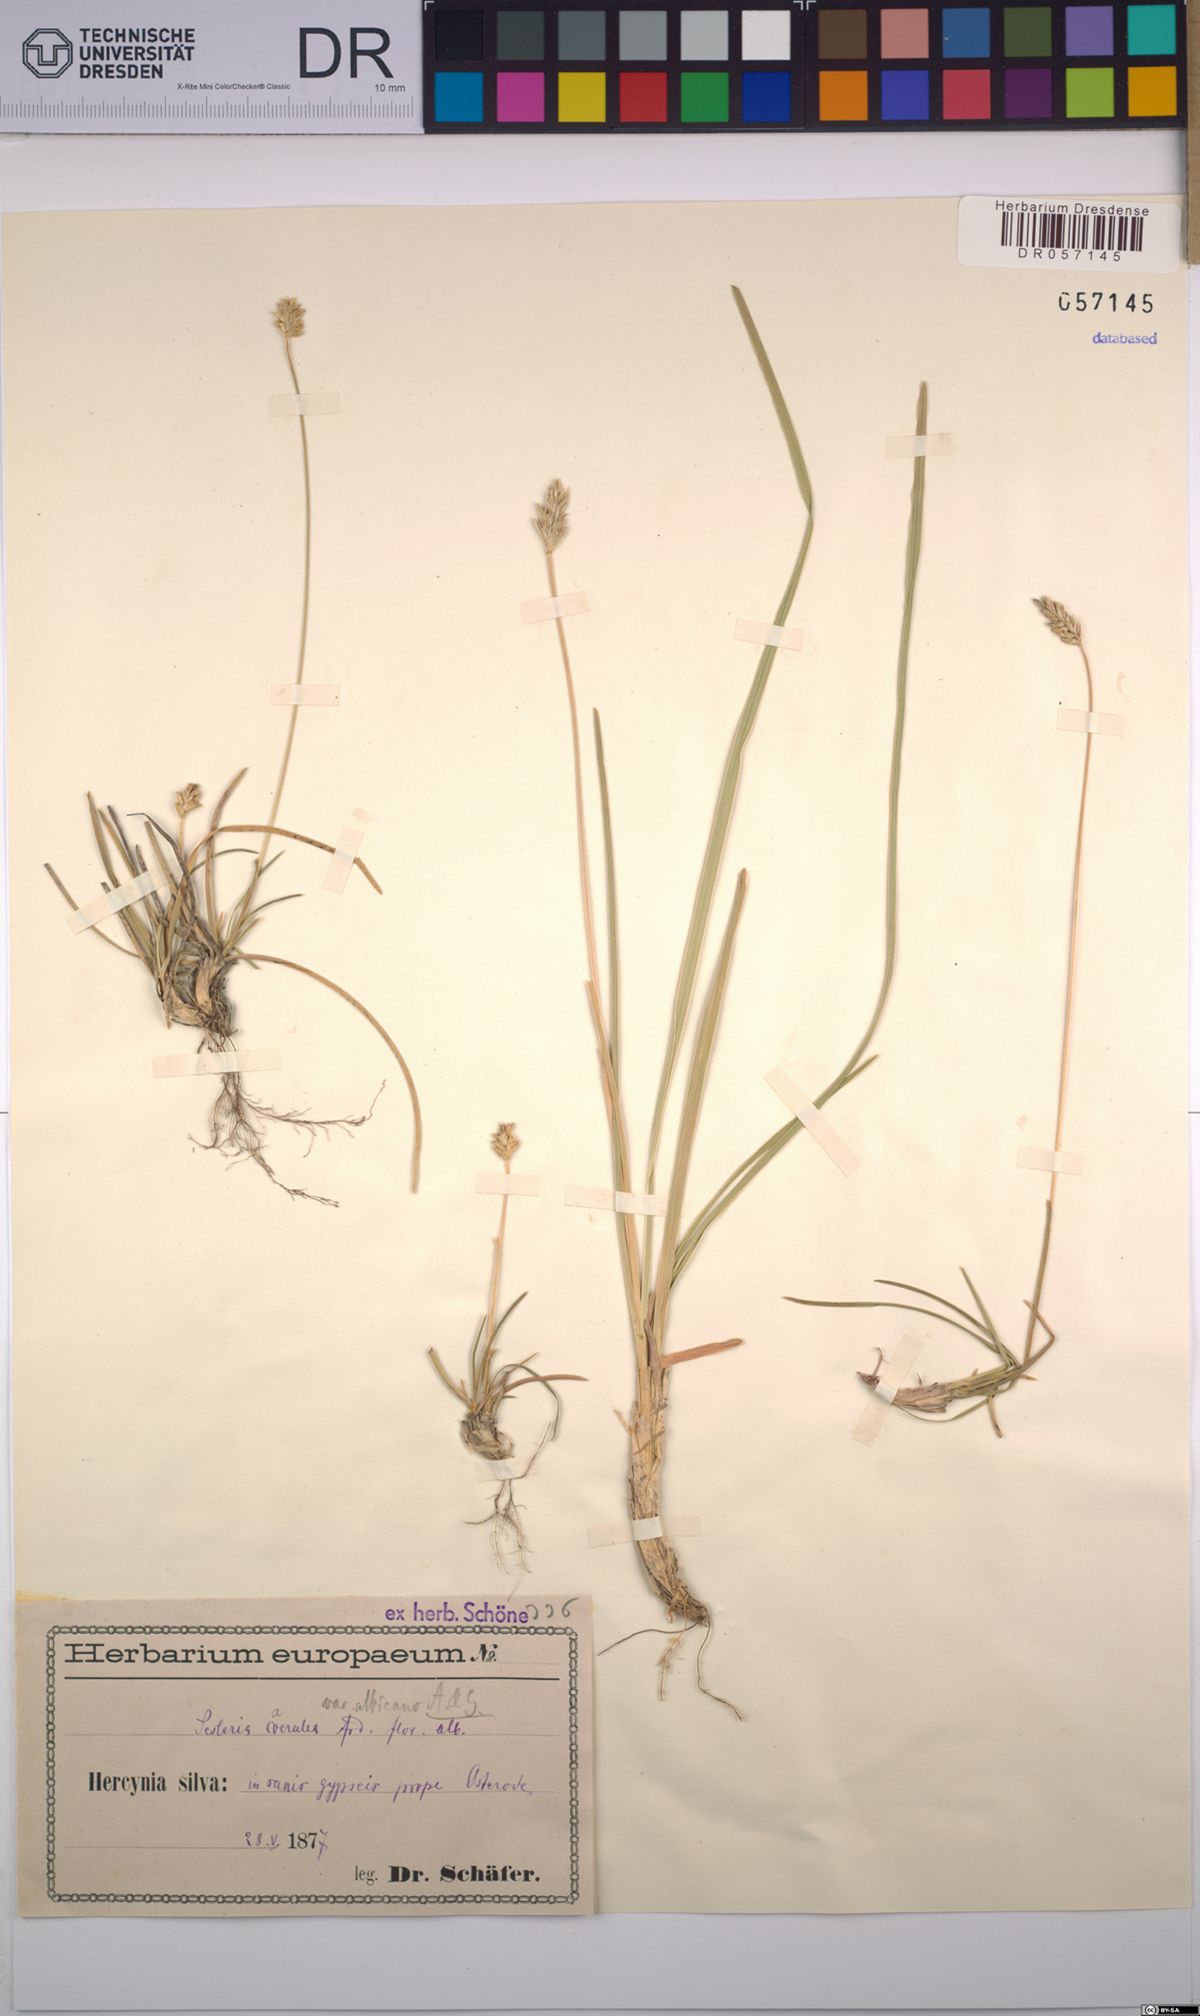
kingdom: Plantae
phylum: Tracheophyta
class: Liliopsida
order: Poales
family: Poaceae
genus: Sesleria
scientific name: Sesleria caerulea
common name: Blue moor-grass
